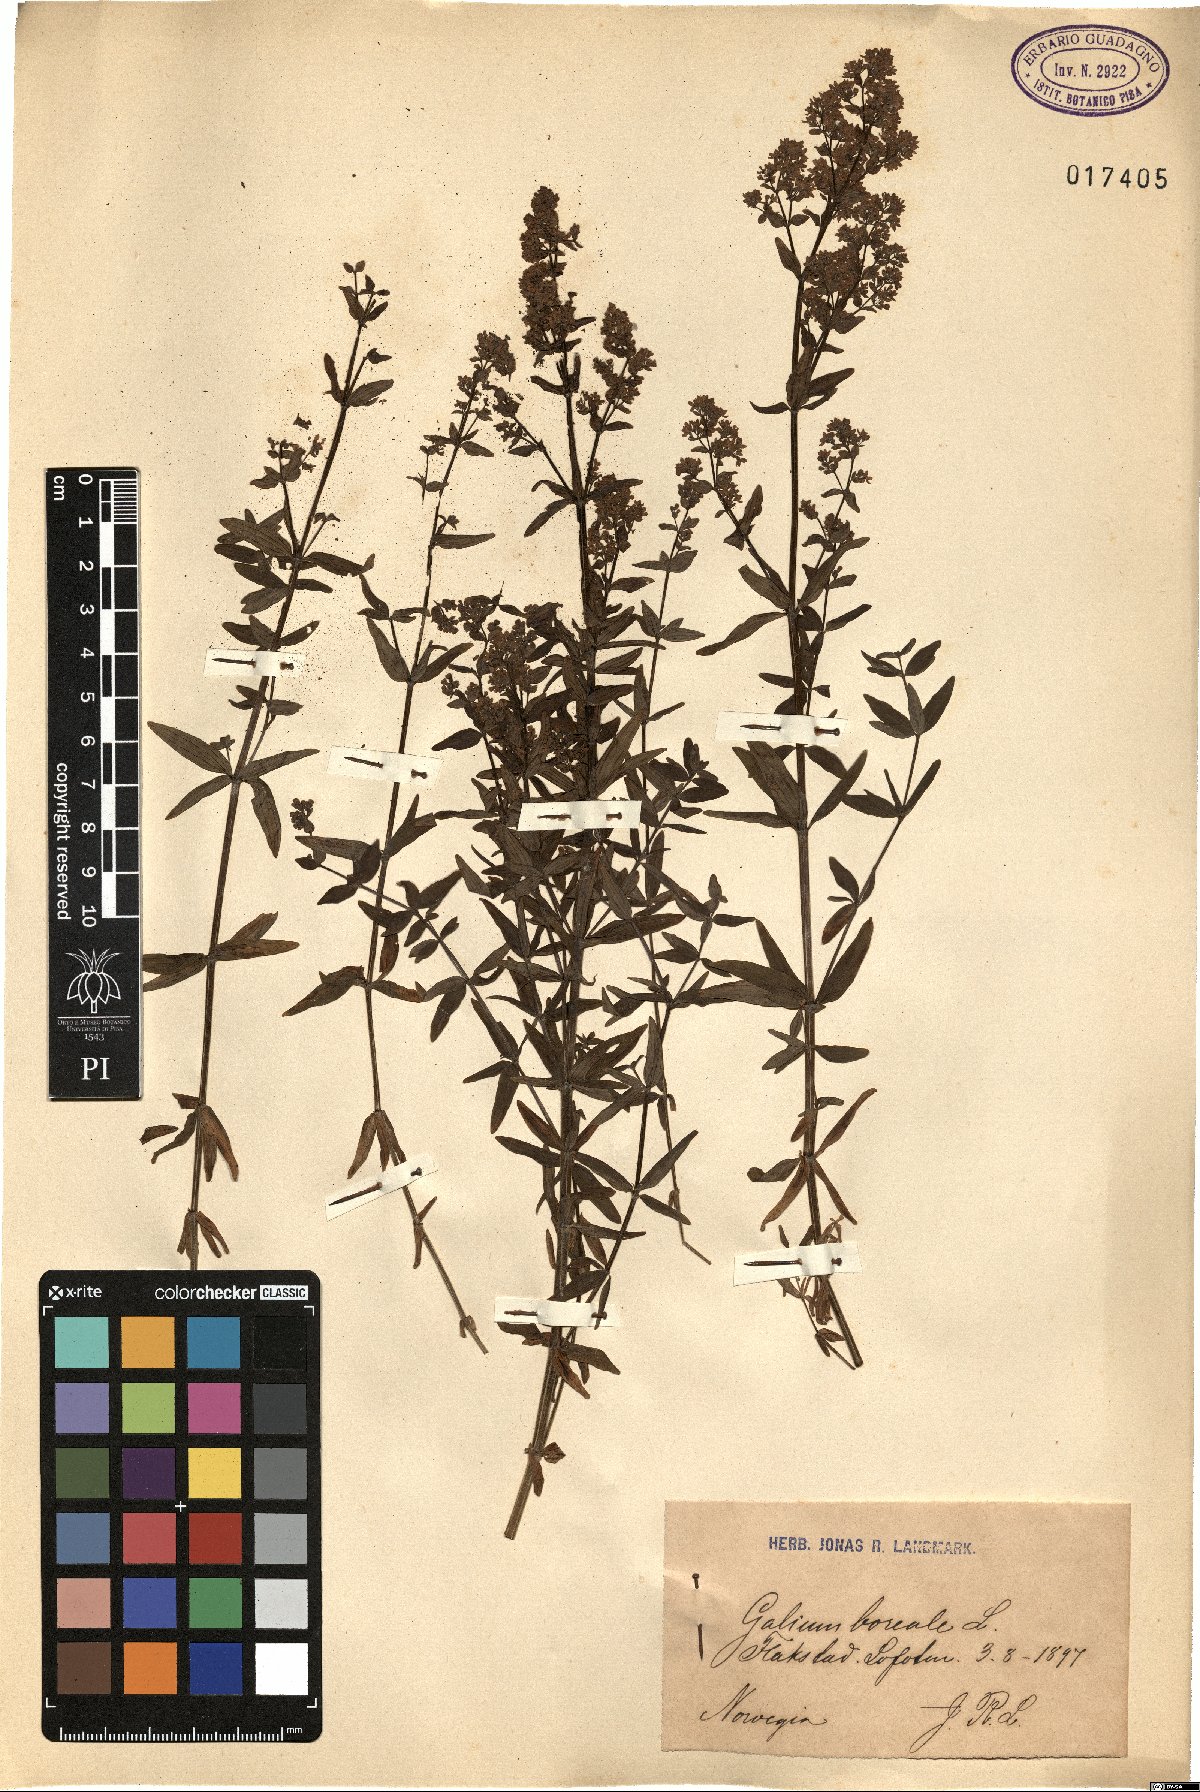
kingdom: Plantae
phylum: Tracheophyta
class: Magnoliopsida
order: Gentianales
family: Rubiaceae
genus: Galium
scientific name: Galium boreale
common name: Northern bedstraw
